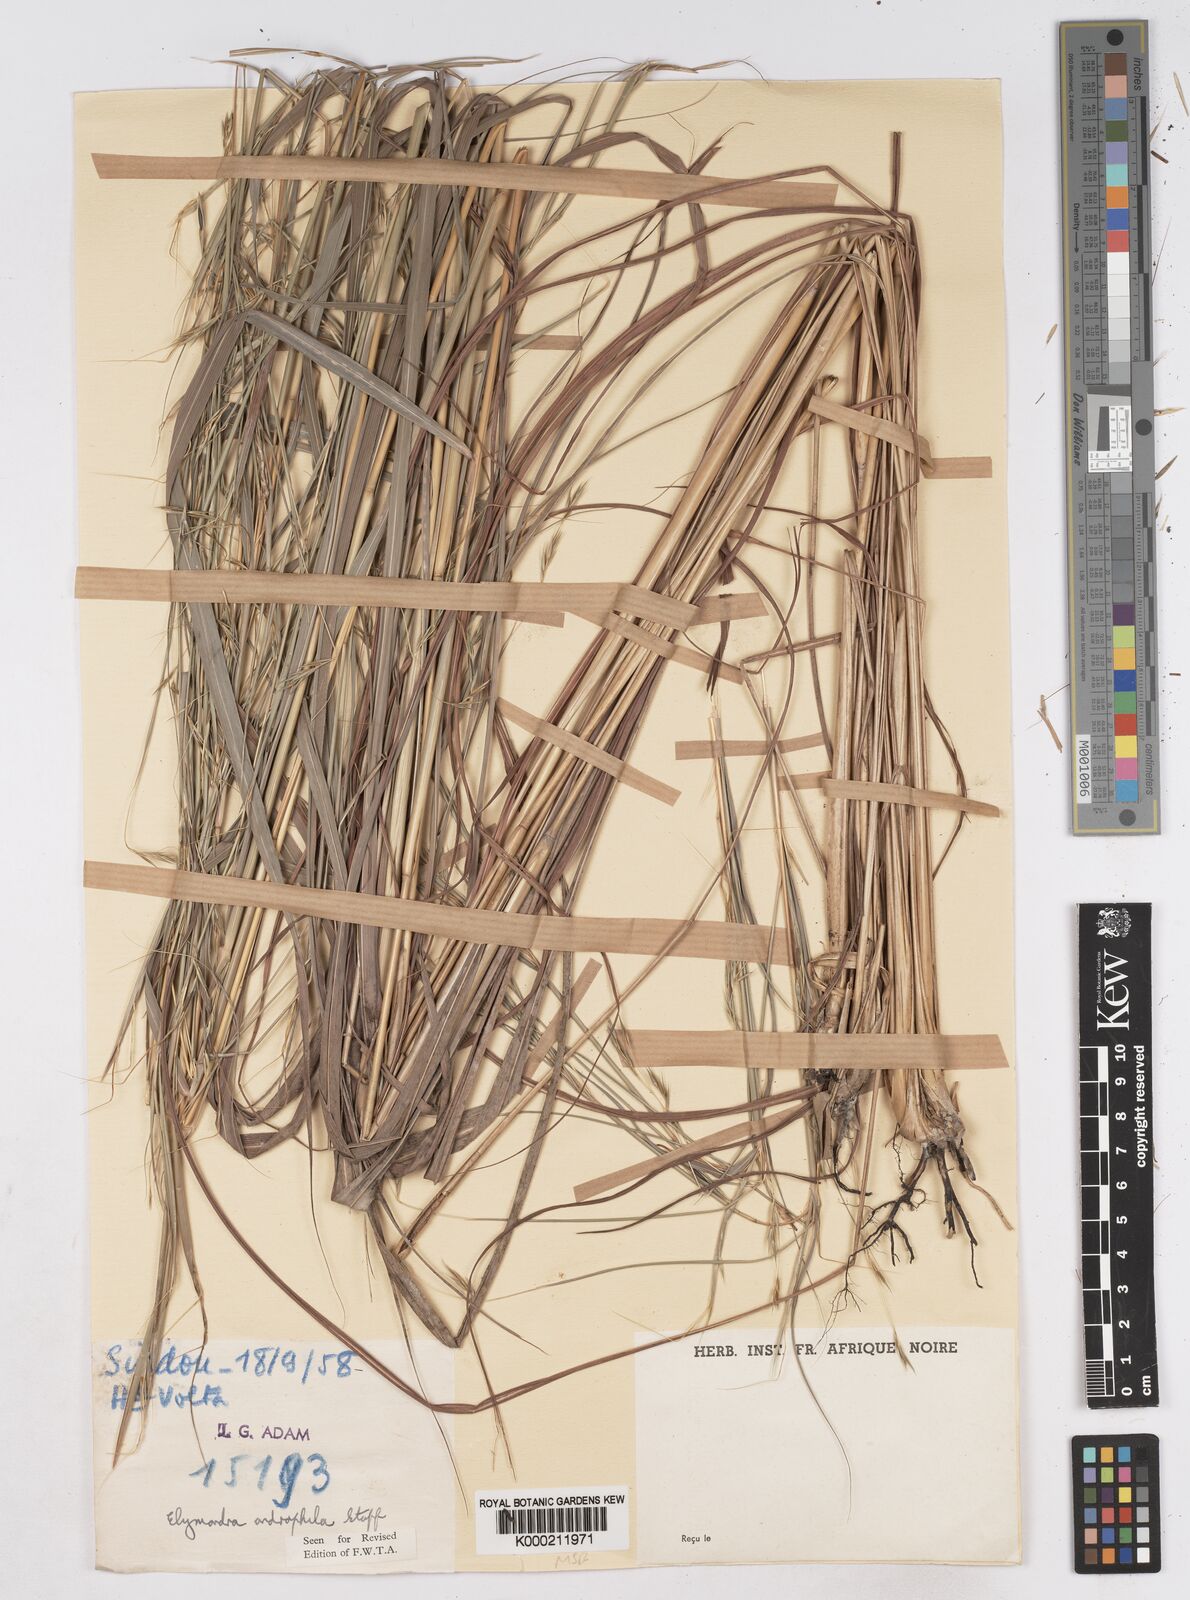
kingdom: Plantae
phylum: Tracheophyta
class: Liliopsida
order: Poales
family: Poaceae
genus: Elymandra
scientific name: Elymandra androphila
